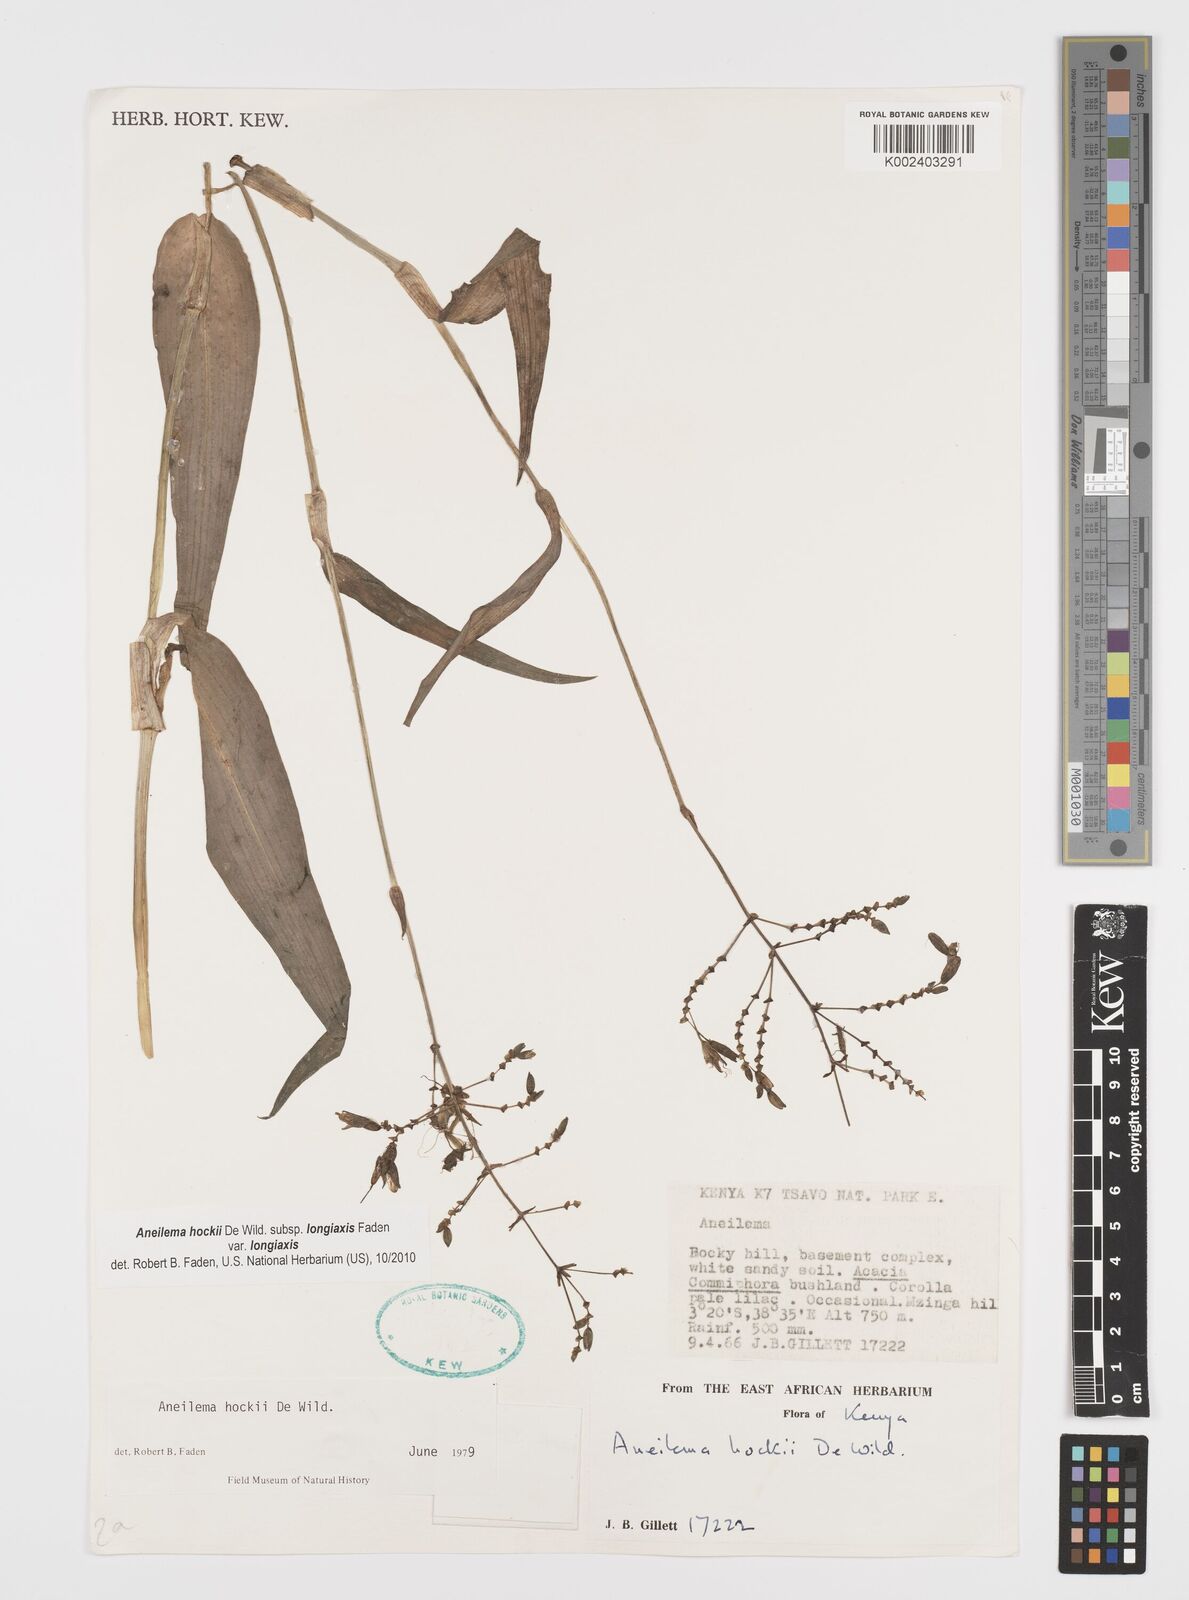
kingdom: Plantae
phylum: Tracheophyta
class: Liliopsida
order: Commelinales
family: Commelinaceae
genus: Aneilema
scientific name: Aneilema hockii
